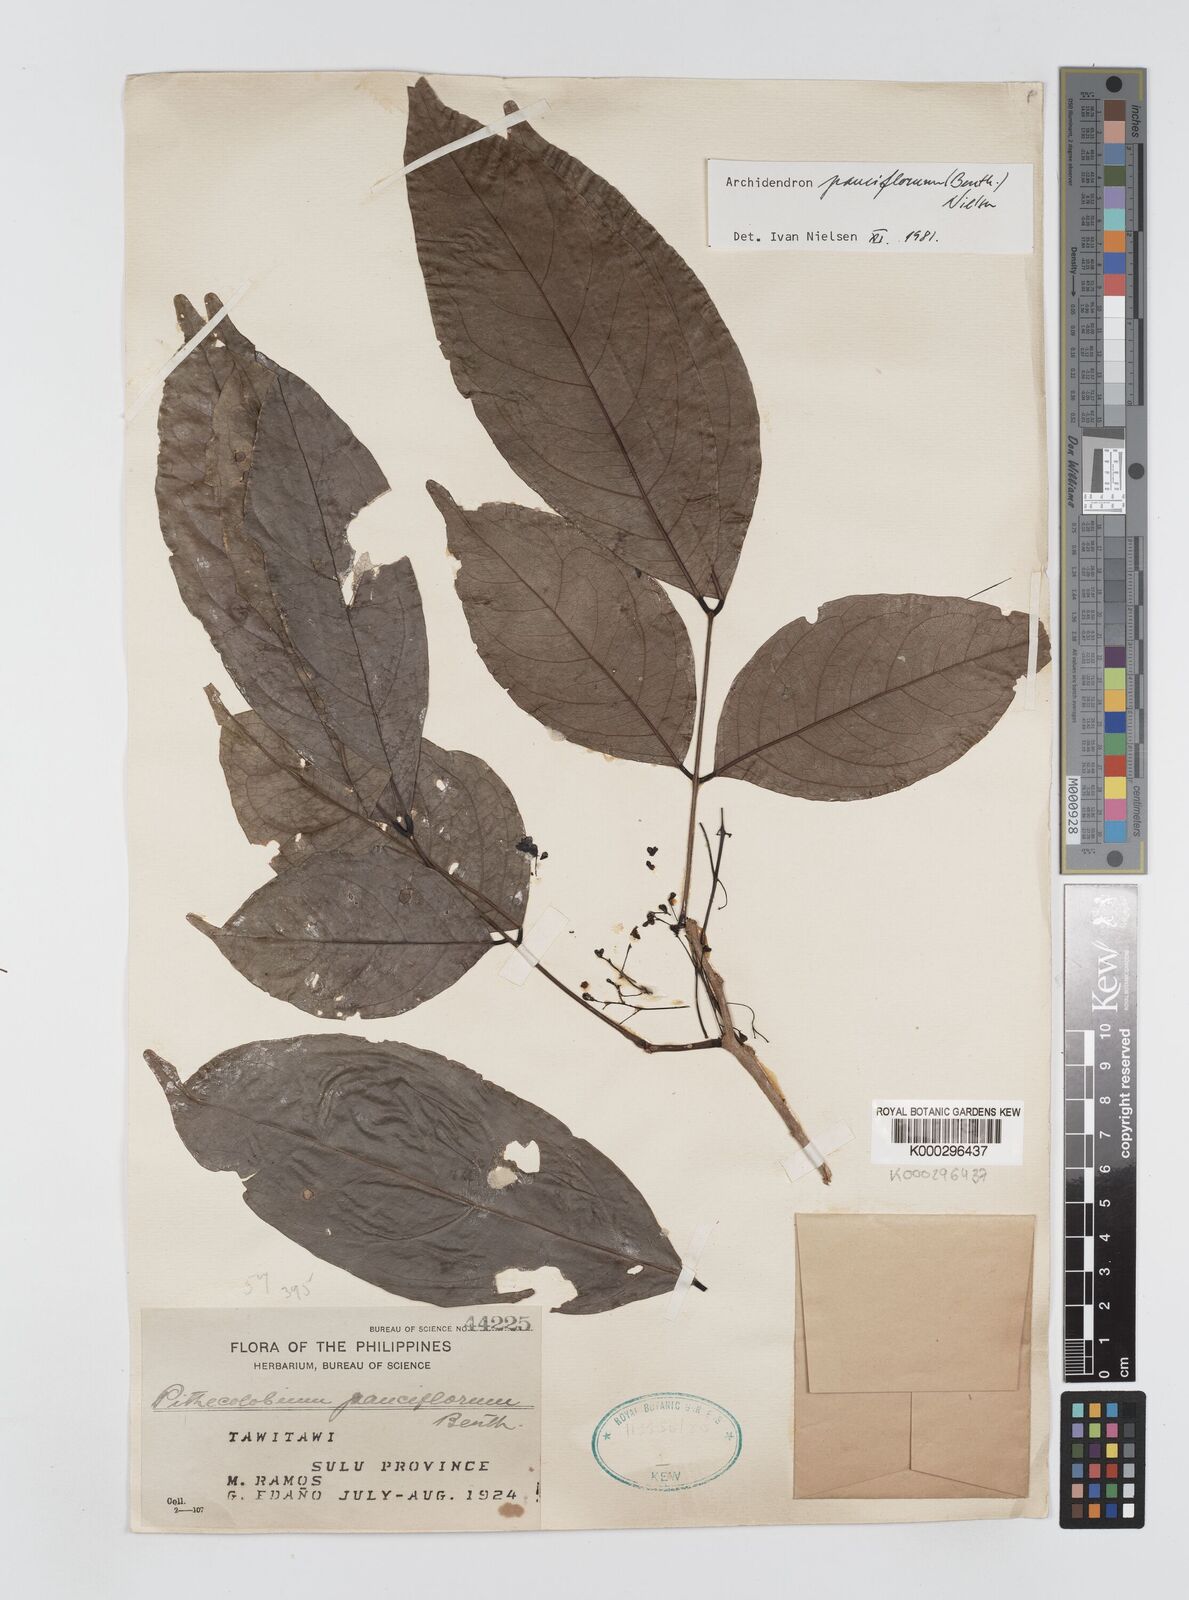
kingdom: Plantae
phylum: Tracheophyta
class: Magnoliopsida
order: Fabales
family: Fabaceae
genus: Archidendron
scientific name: Archidendron pauciflorum
